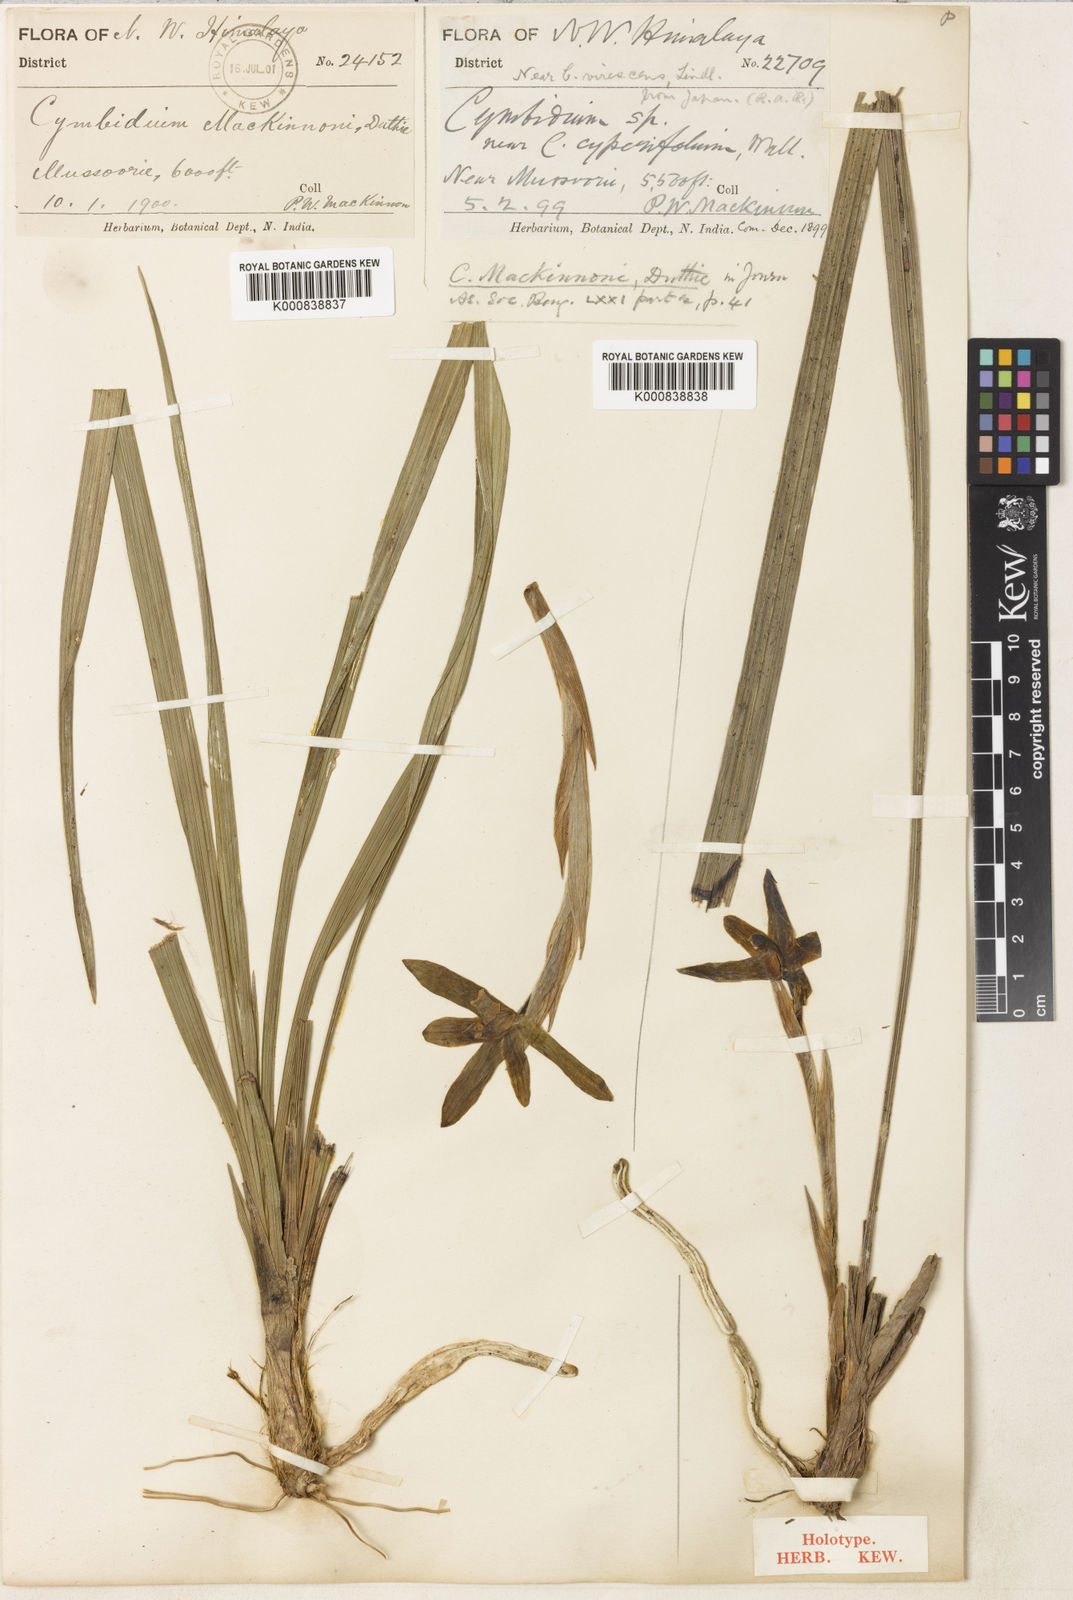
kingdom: Plantae
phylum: Tracheophyta
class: Liliopsida
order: Asparagales
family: Orchidaceae
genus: Cymbidium
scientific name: Cymbidium goeringii
